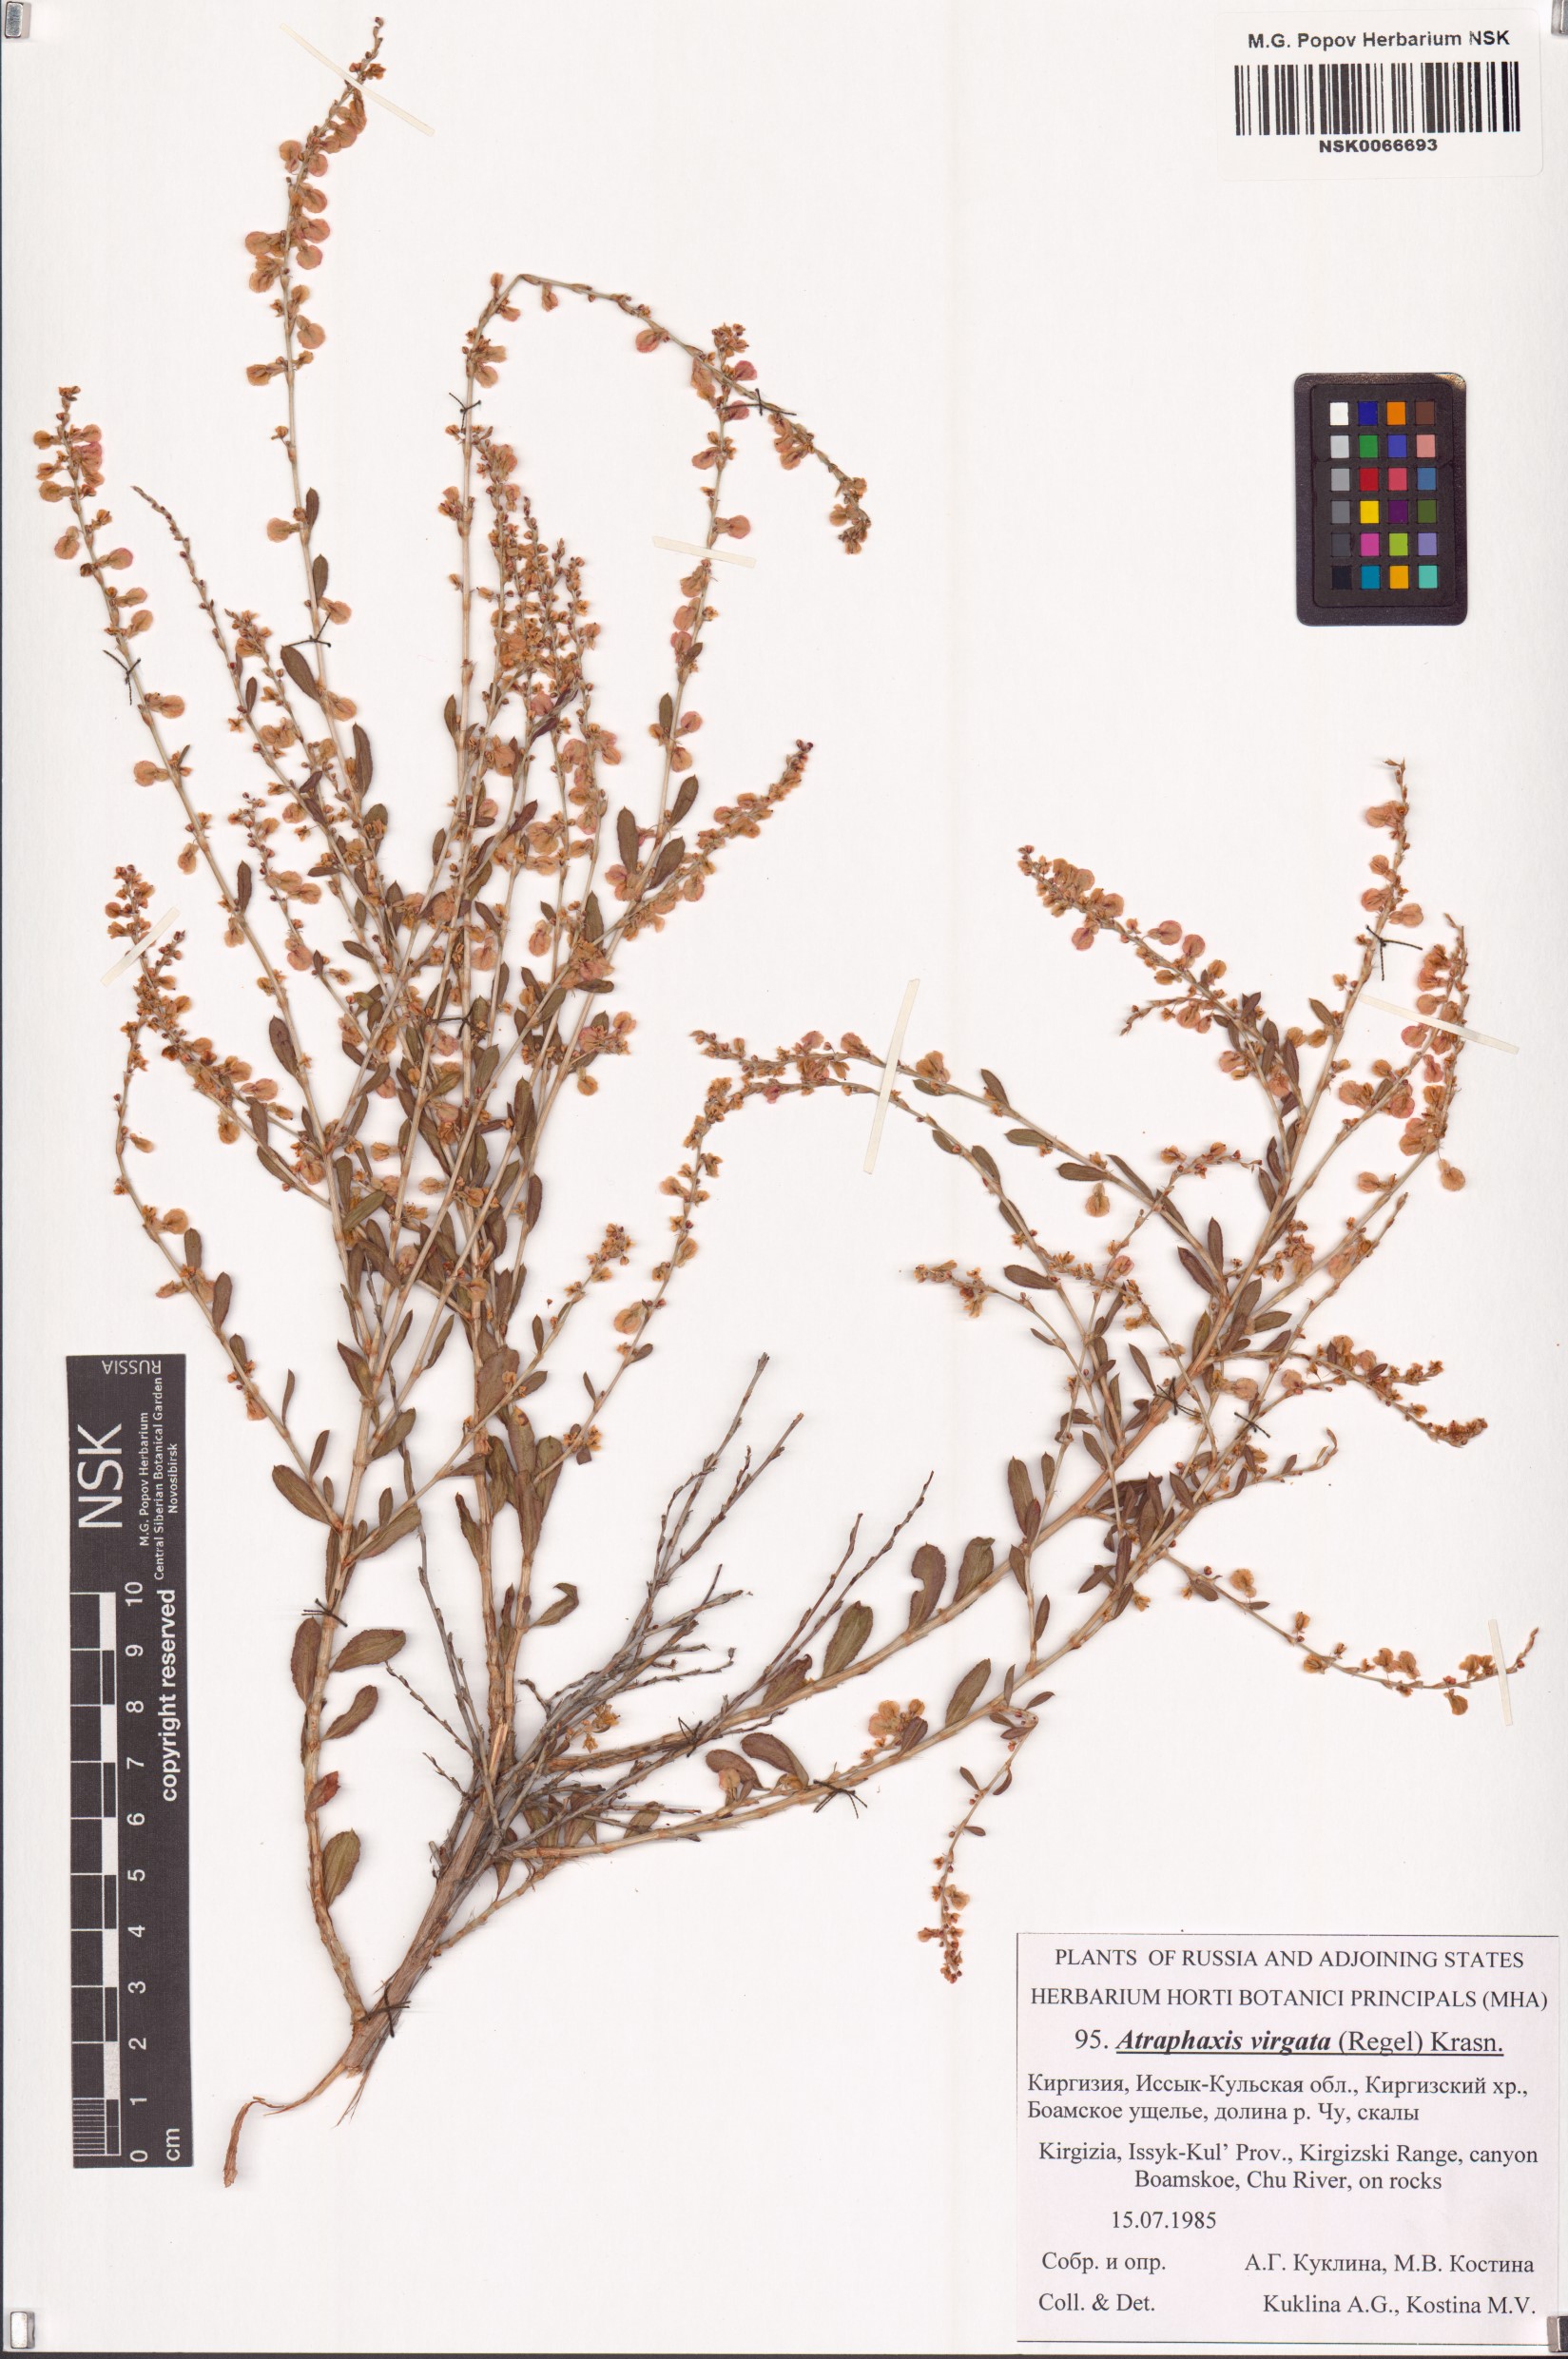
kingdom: Plantae
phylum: Tracheophyta
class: Magnoliopsida
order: Caryophyllales
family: Polygonaceae
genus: Atraphaxis
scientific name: Atraphaxis virgata
